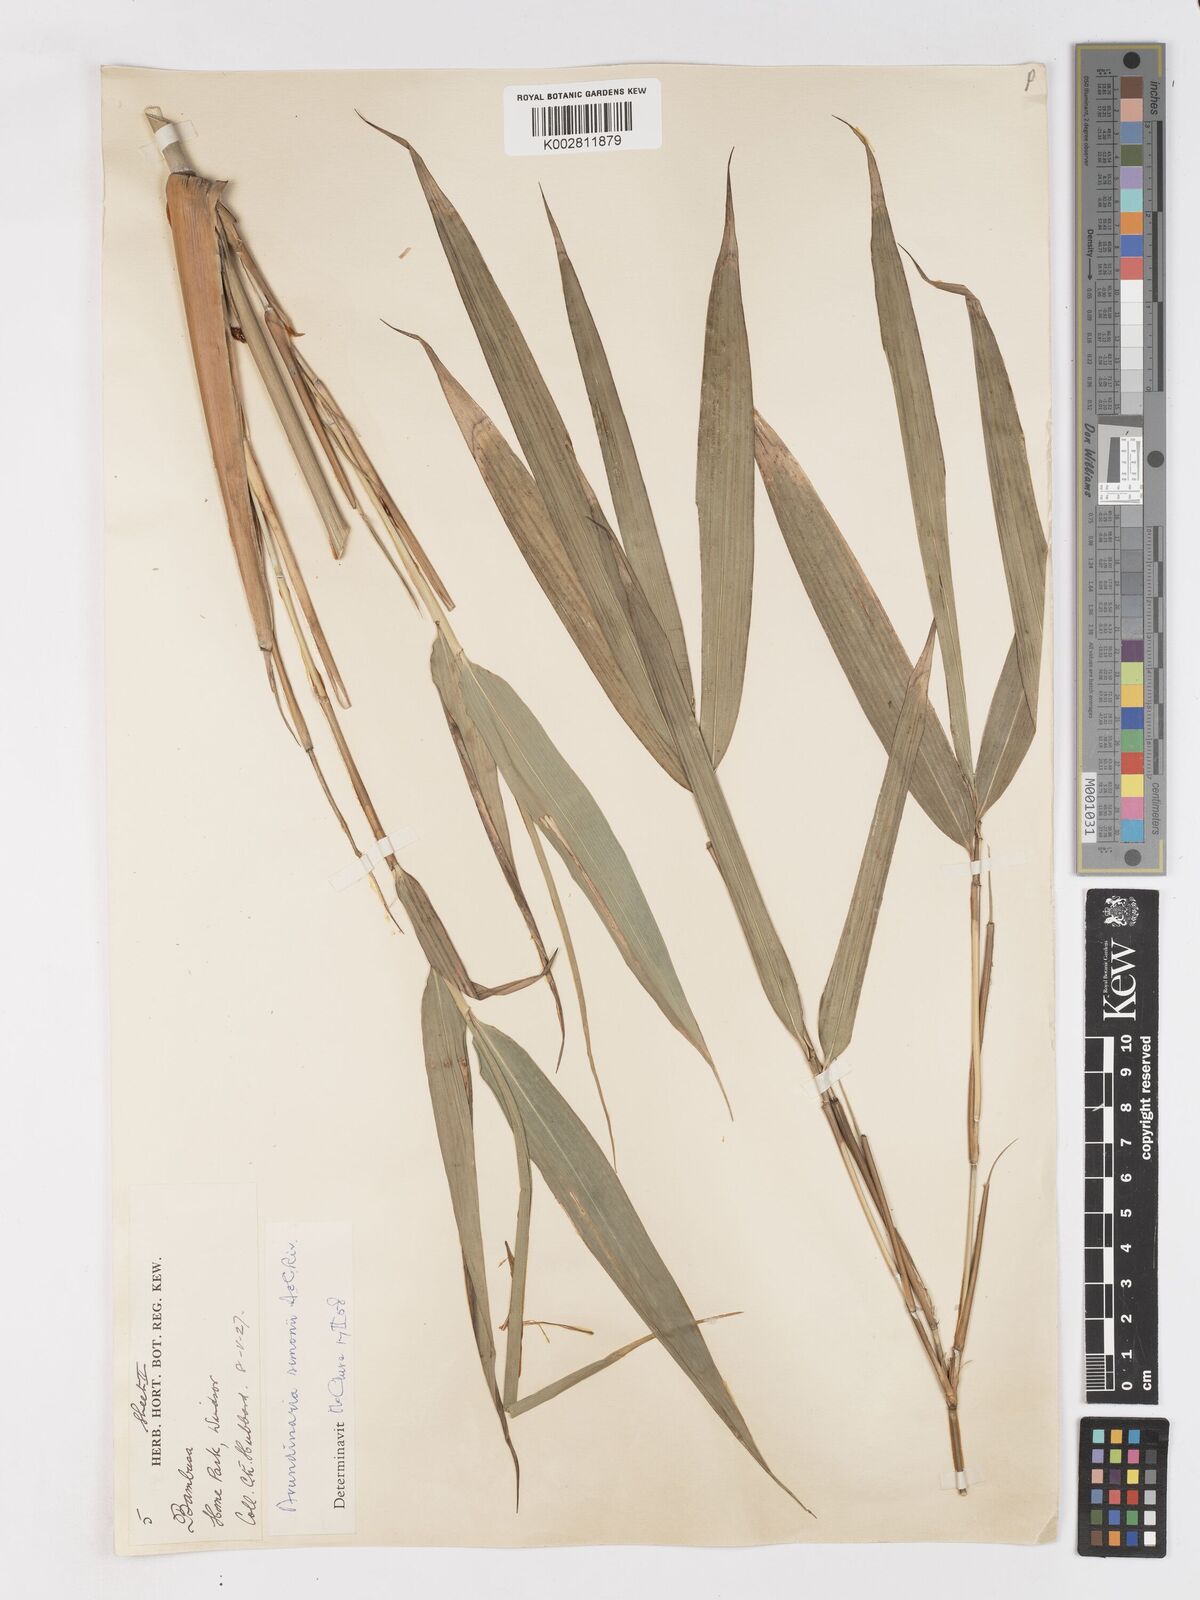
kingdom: Plantae
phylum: Tracheophyta
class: Liliopsida
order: Poales
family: Poaceae
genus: Pleioblastus
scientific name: Pleioblastus simonii
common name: Simon bamboo
